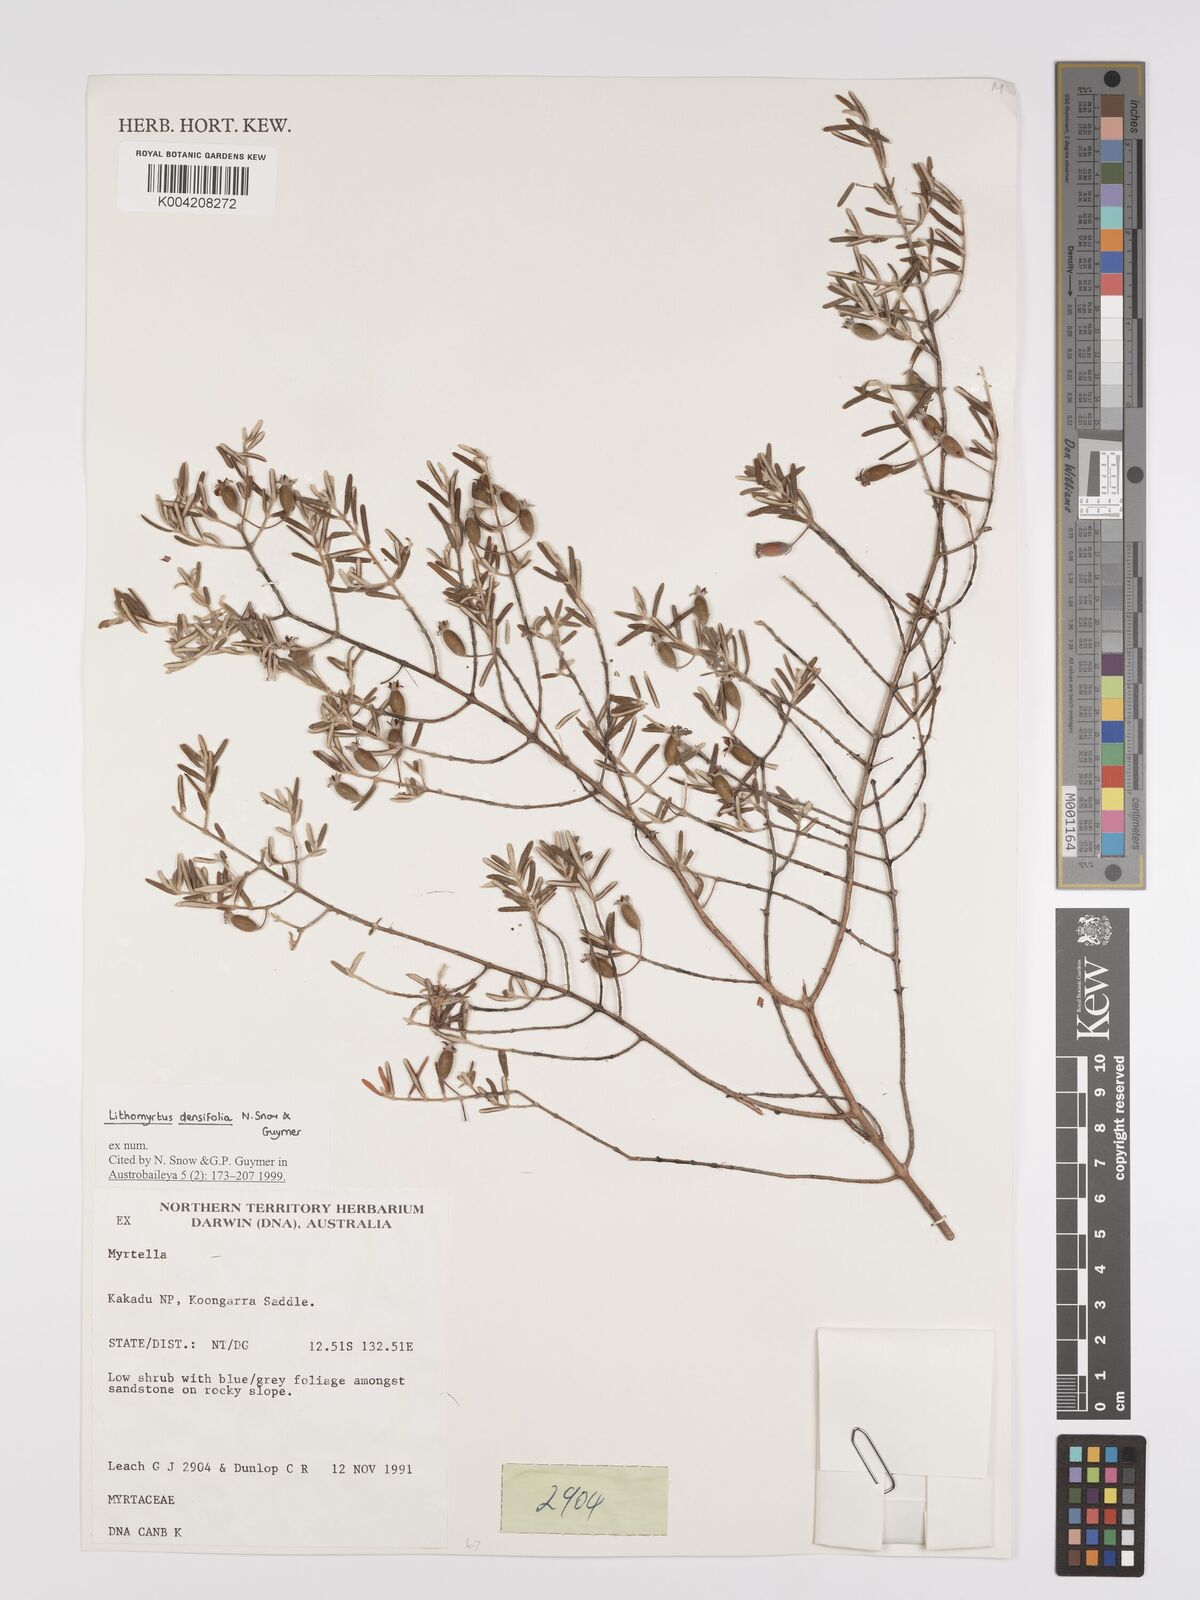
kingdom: Plantae
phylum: Tracheophyta
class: Magnoliopsida
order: Myrtales
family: Myrtaceae
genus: Lithomyrtus
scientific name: Lithomyrtus densifolia
